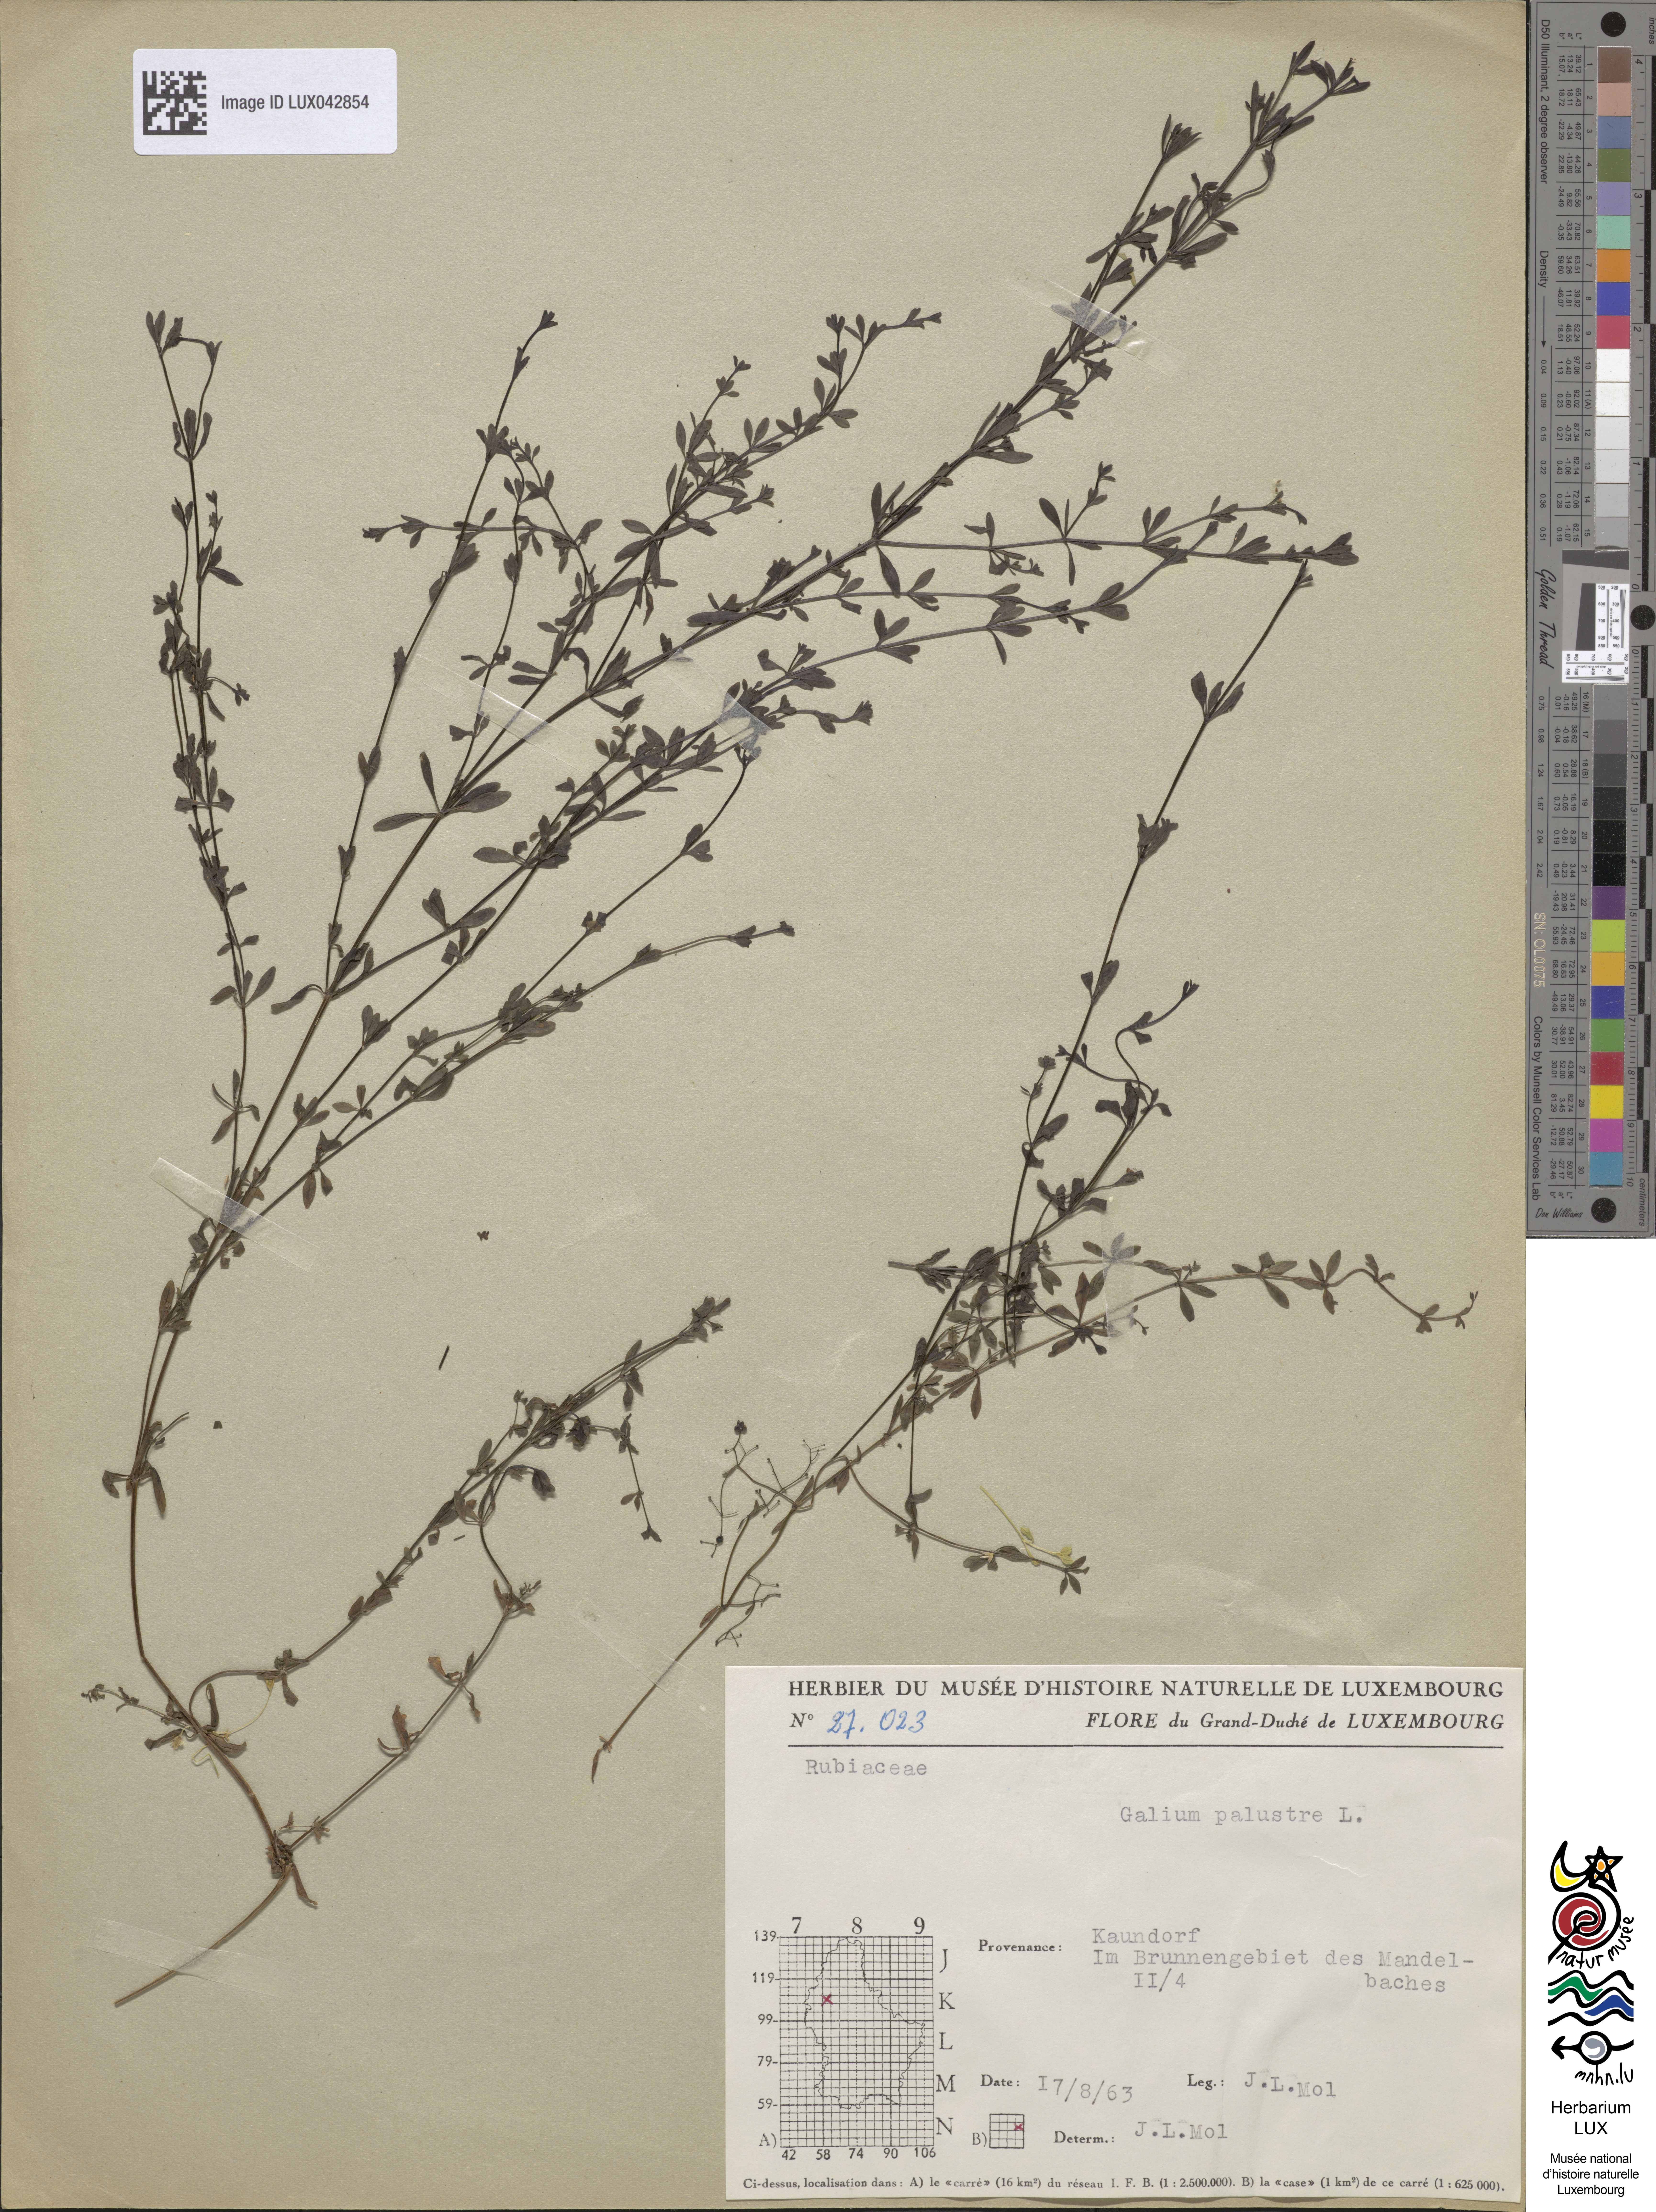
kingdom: Plantae
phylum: Tracheophyta
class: Magnoliopsida
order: Gentianales
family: Rubiaceae
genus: Galium
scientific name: Galium palustre
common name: Common marsh-bedstraw
